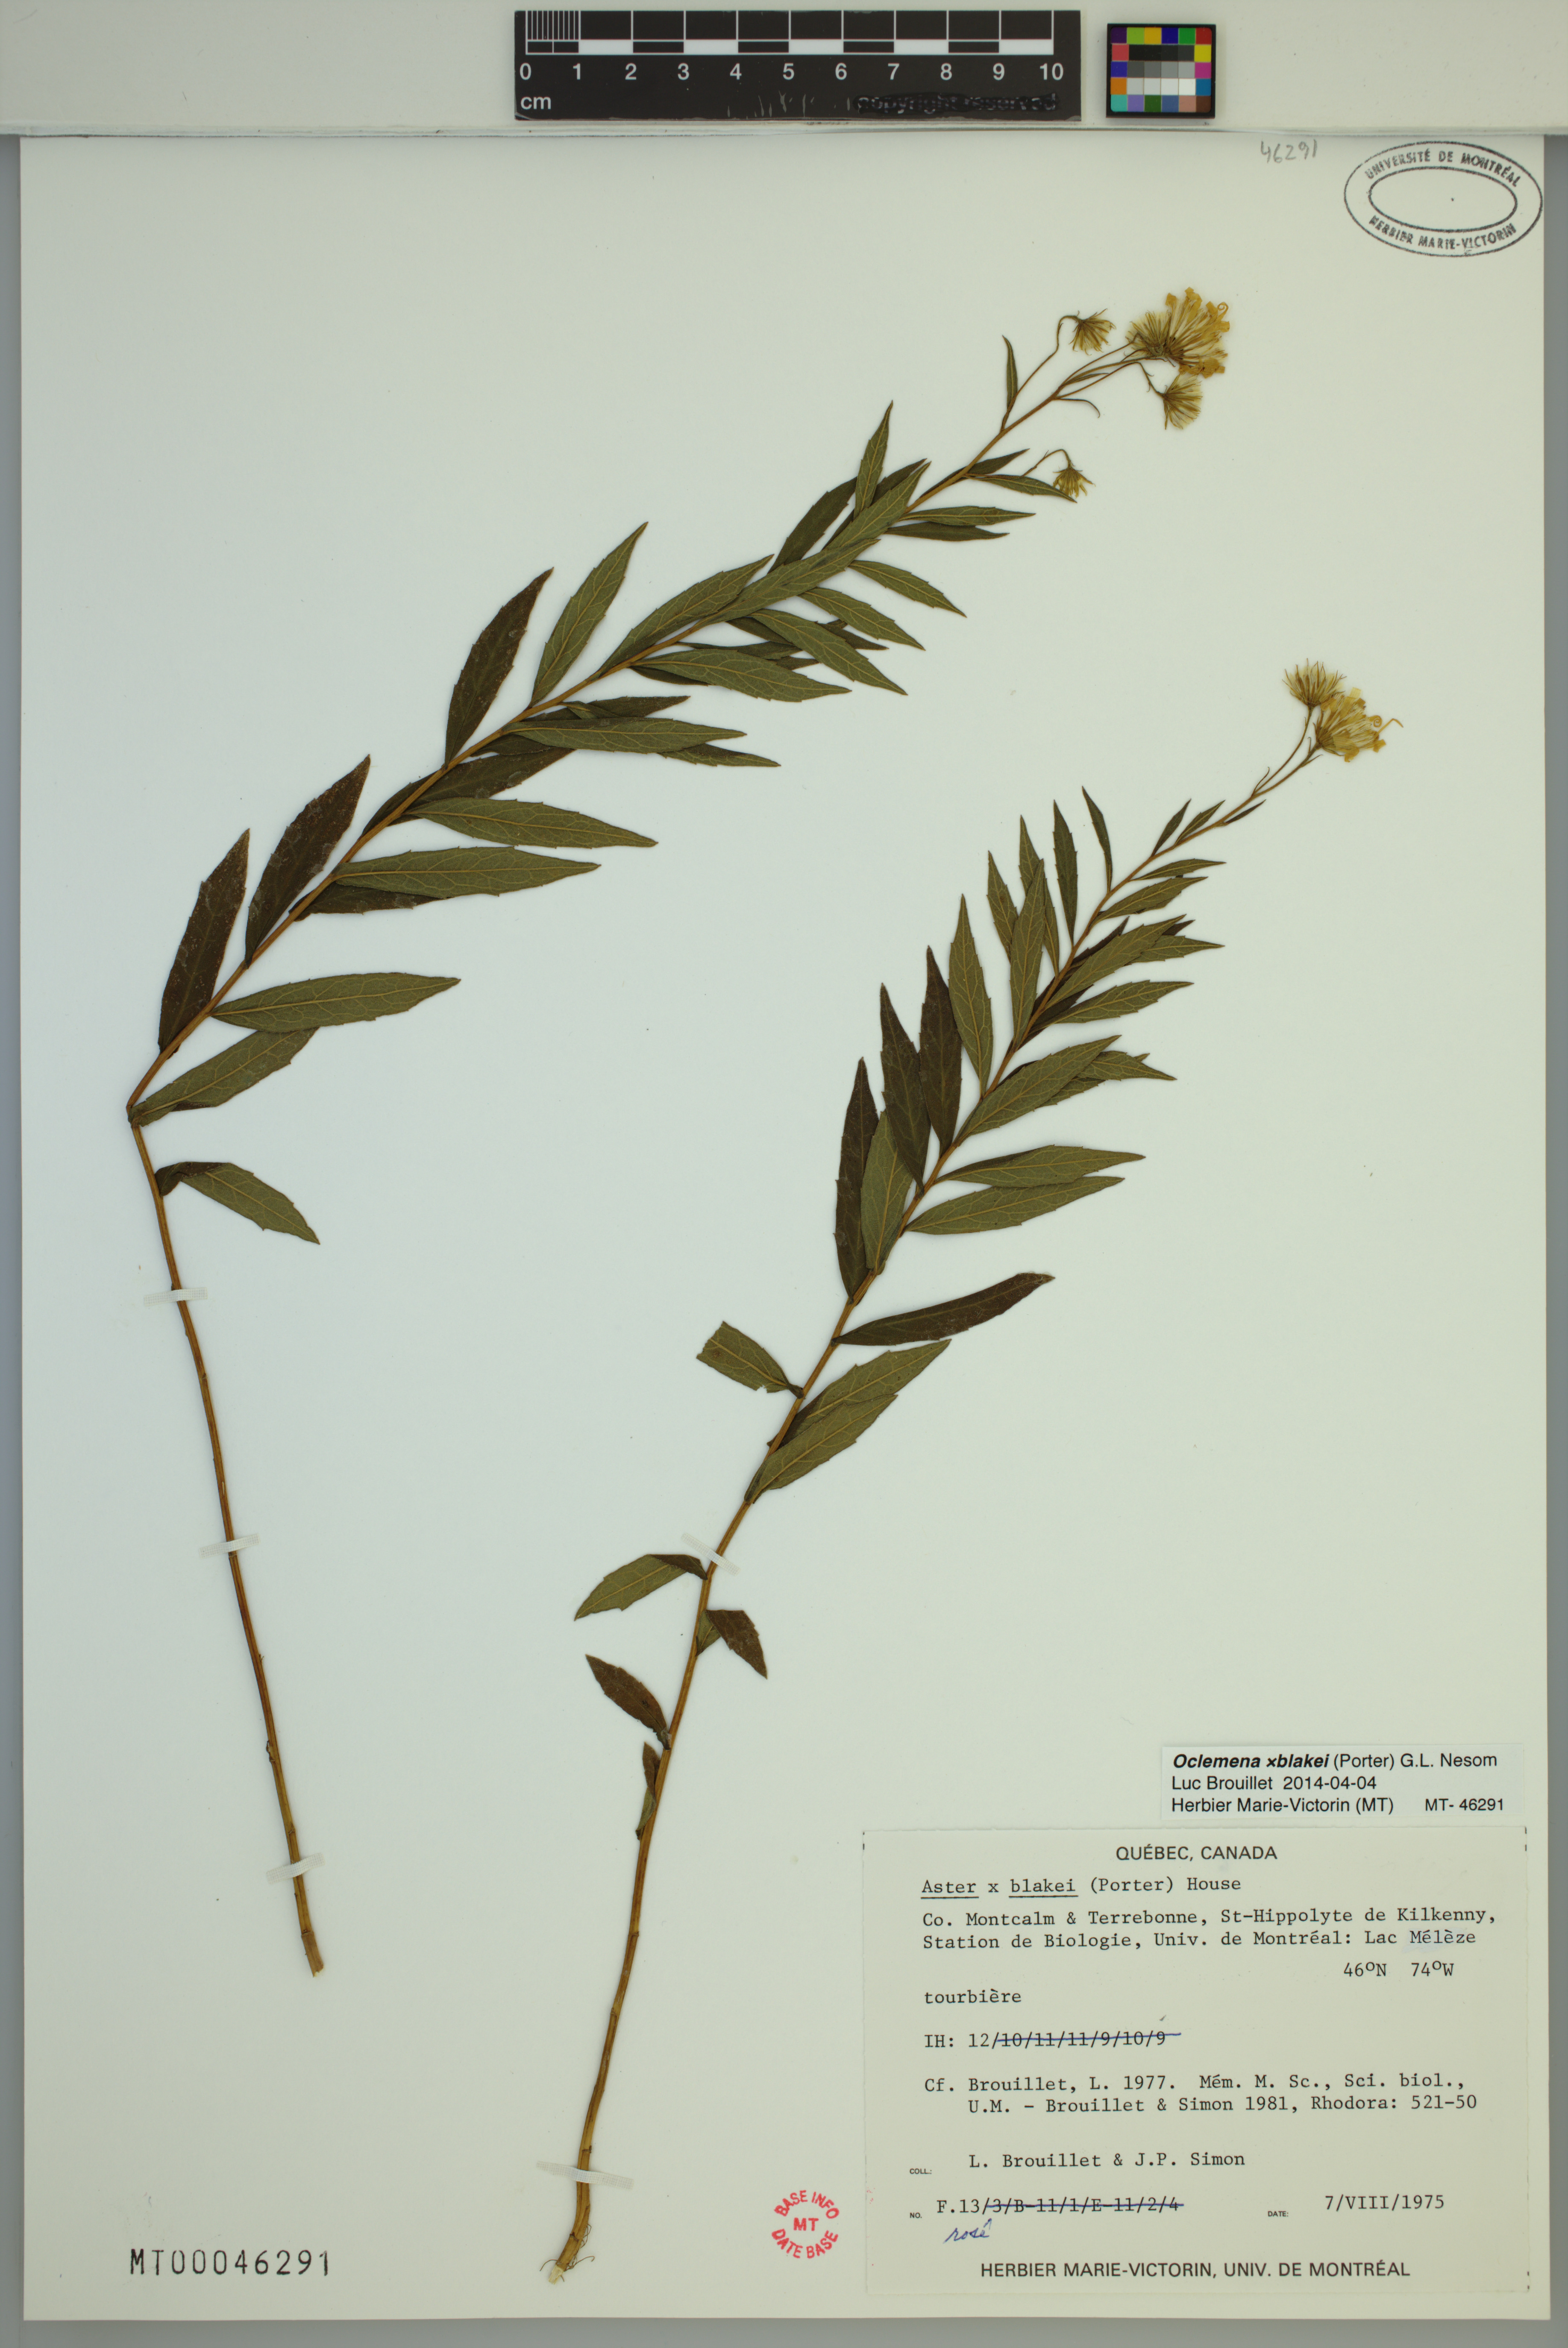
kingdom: Plantae
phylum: Tracheophyta
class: Magnoliopsida
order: Asterales
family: Asteraceae
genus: Oclemena
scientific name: Oclemena blakei
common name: Blake's aster
